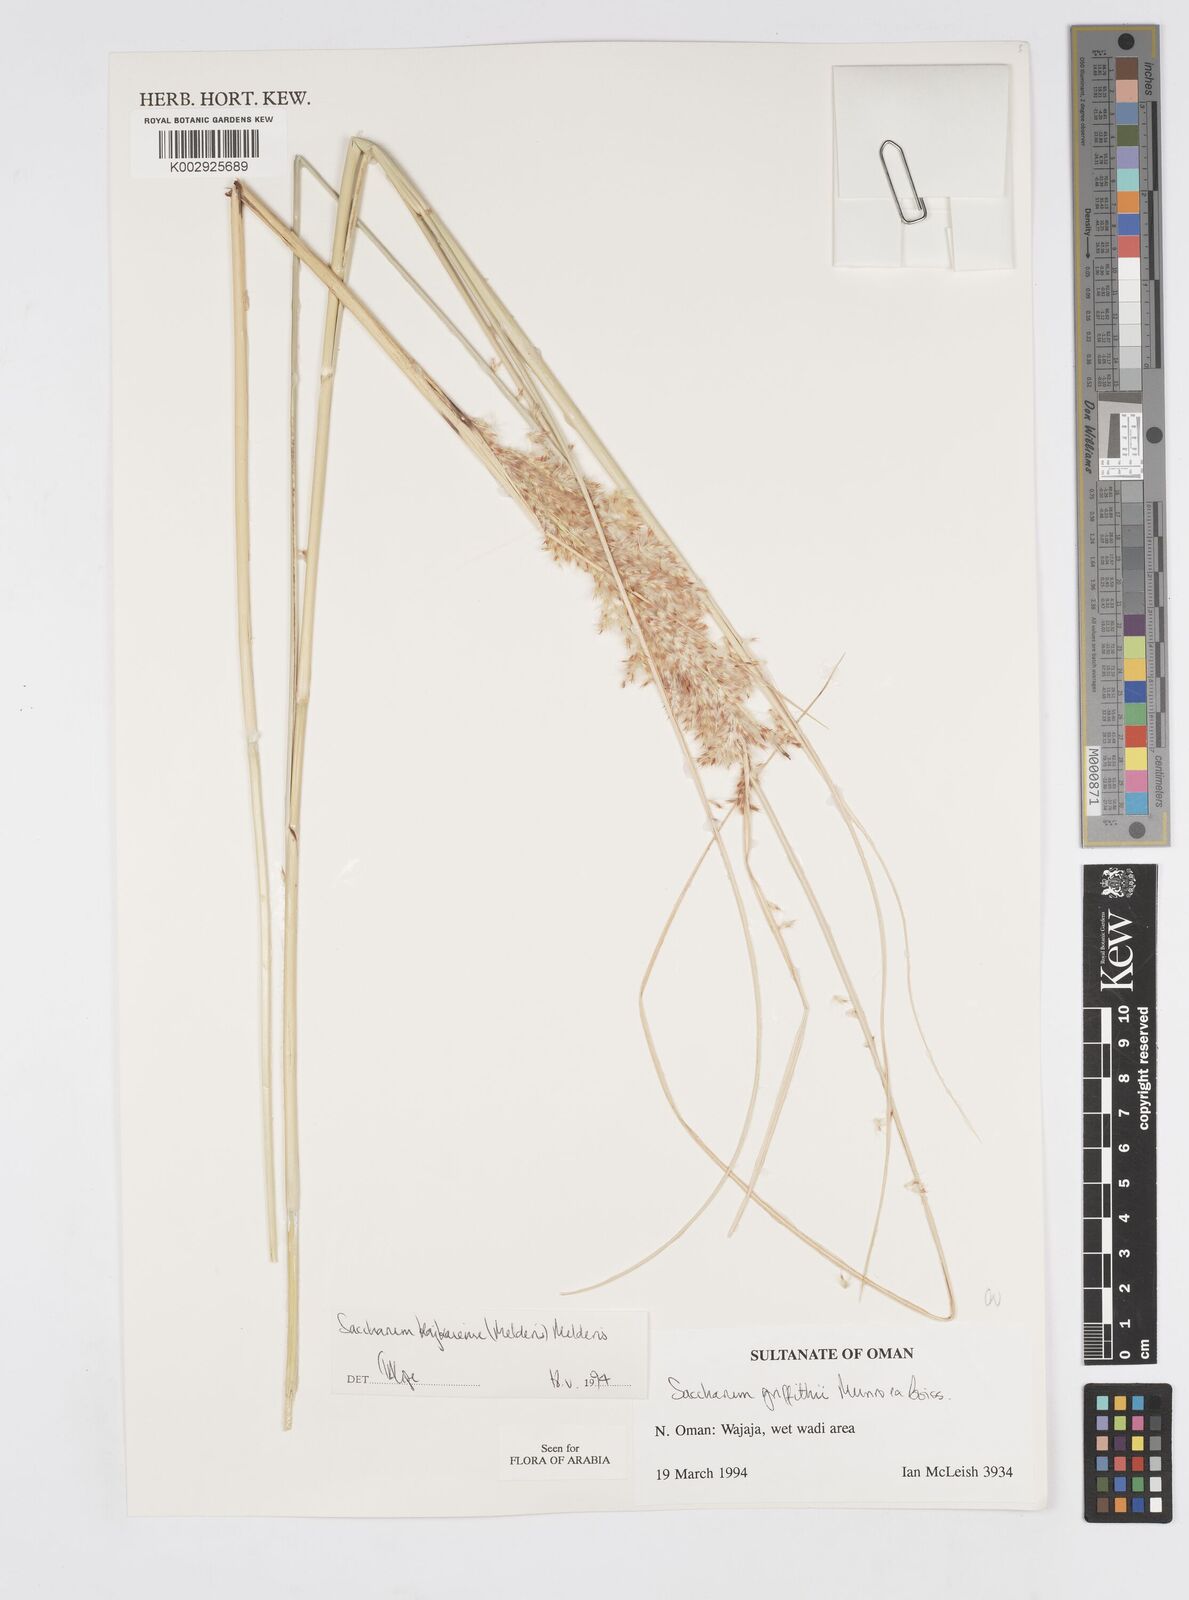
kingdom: Plantae
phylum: Tracheophyta
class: Liliopsida
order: Poales
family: Poaceae
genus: Saccharum
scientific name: Saccharum kajkaiense
